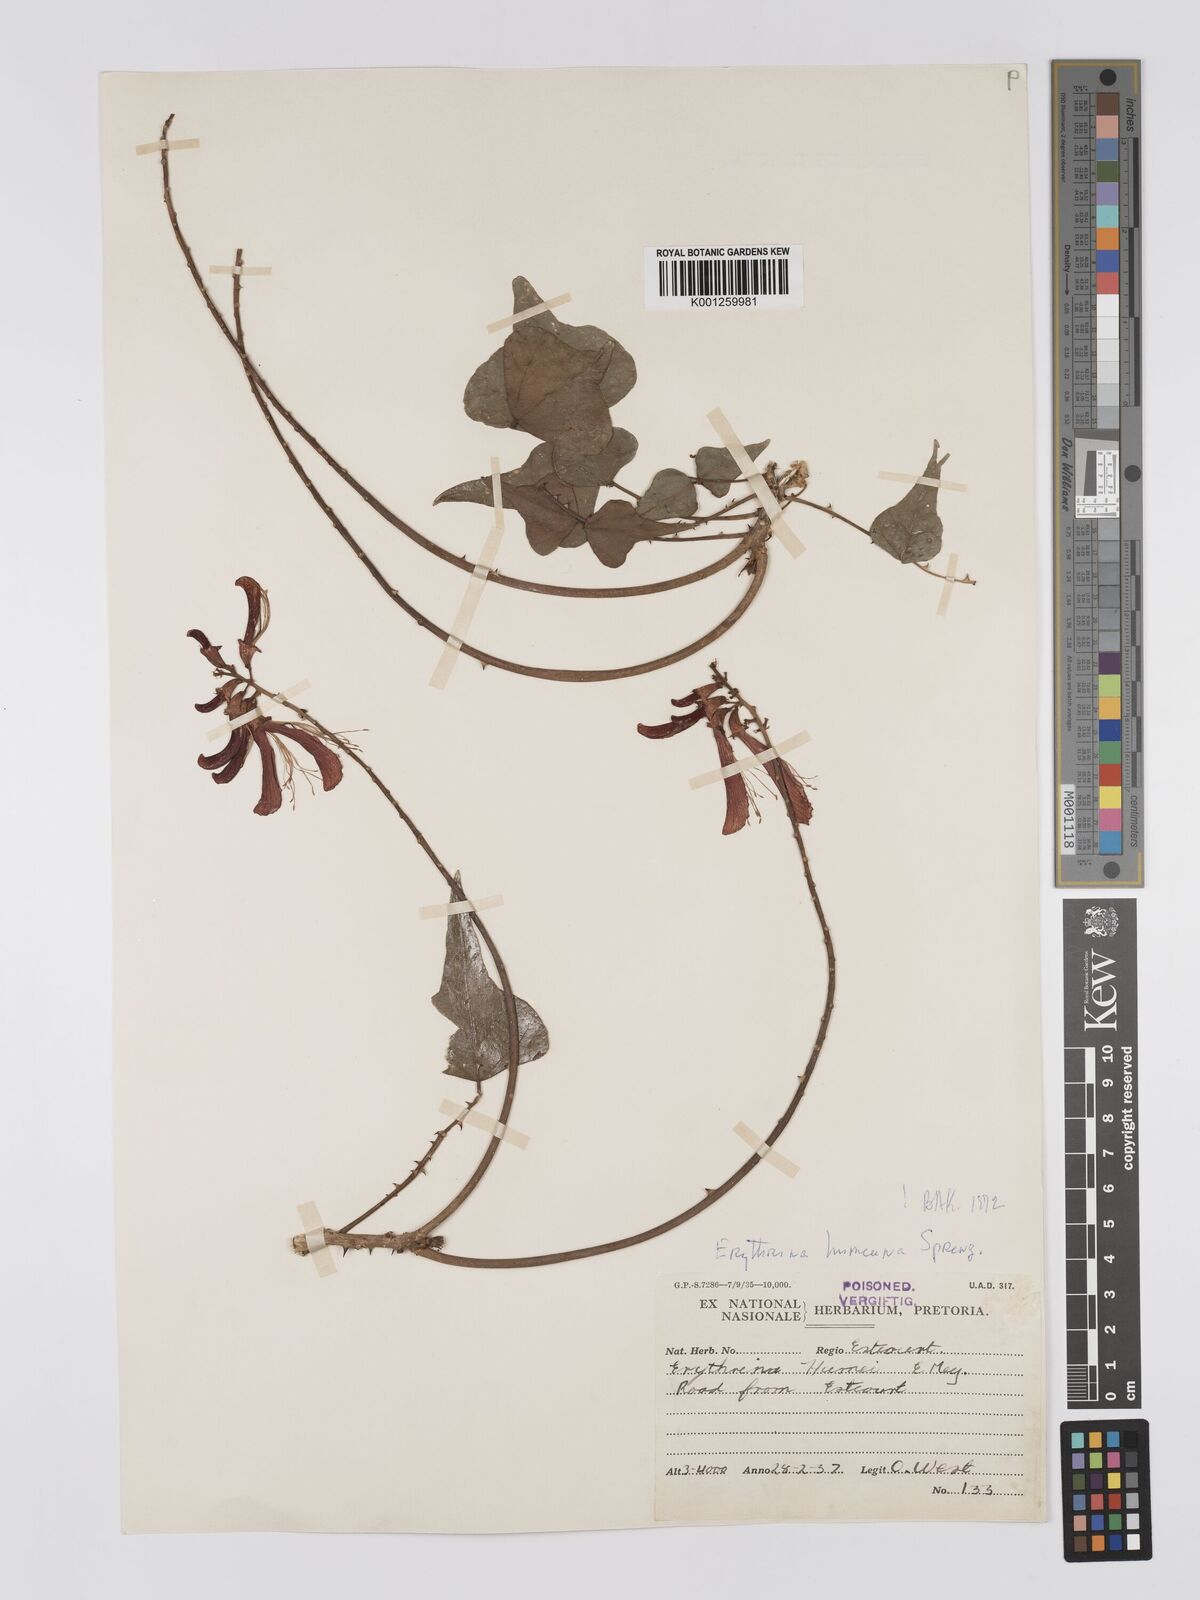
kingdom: Plantae
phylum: Tracheophyta
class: Magnoliopsida
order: Fabales
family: Fabaceae
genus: Erythrina
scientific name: Erythrina humeana
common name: Dwarf coral tree
